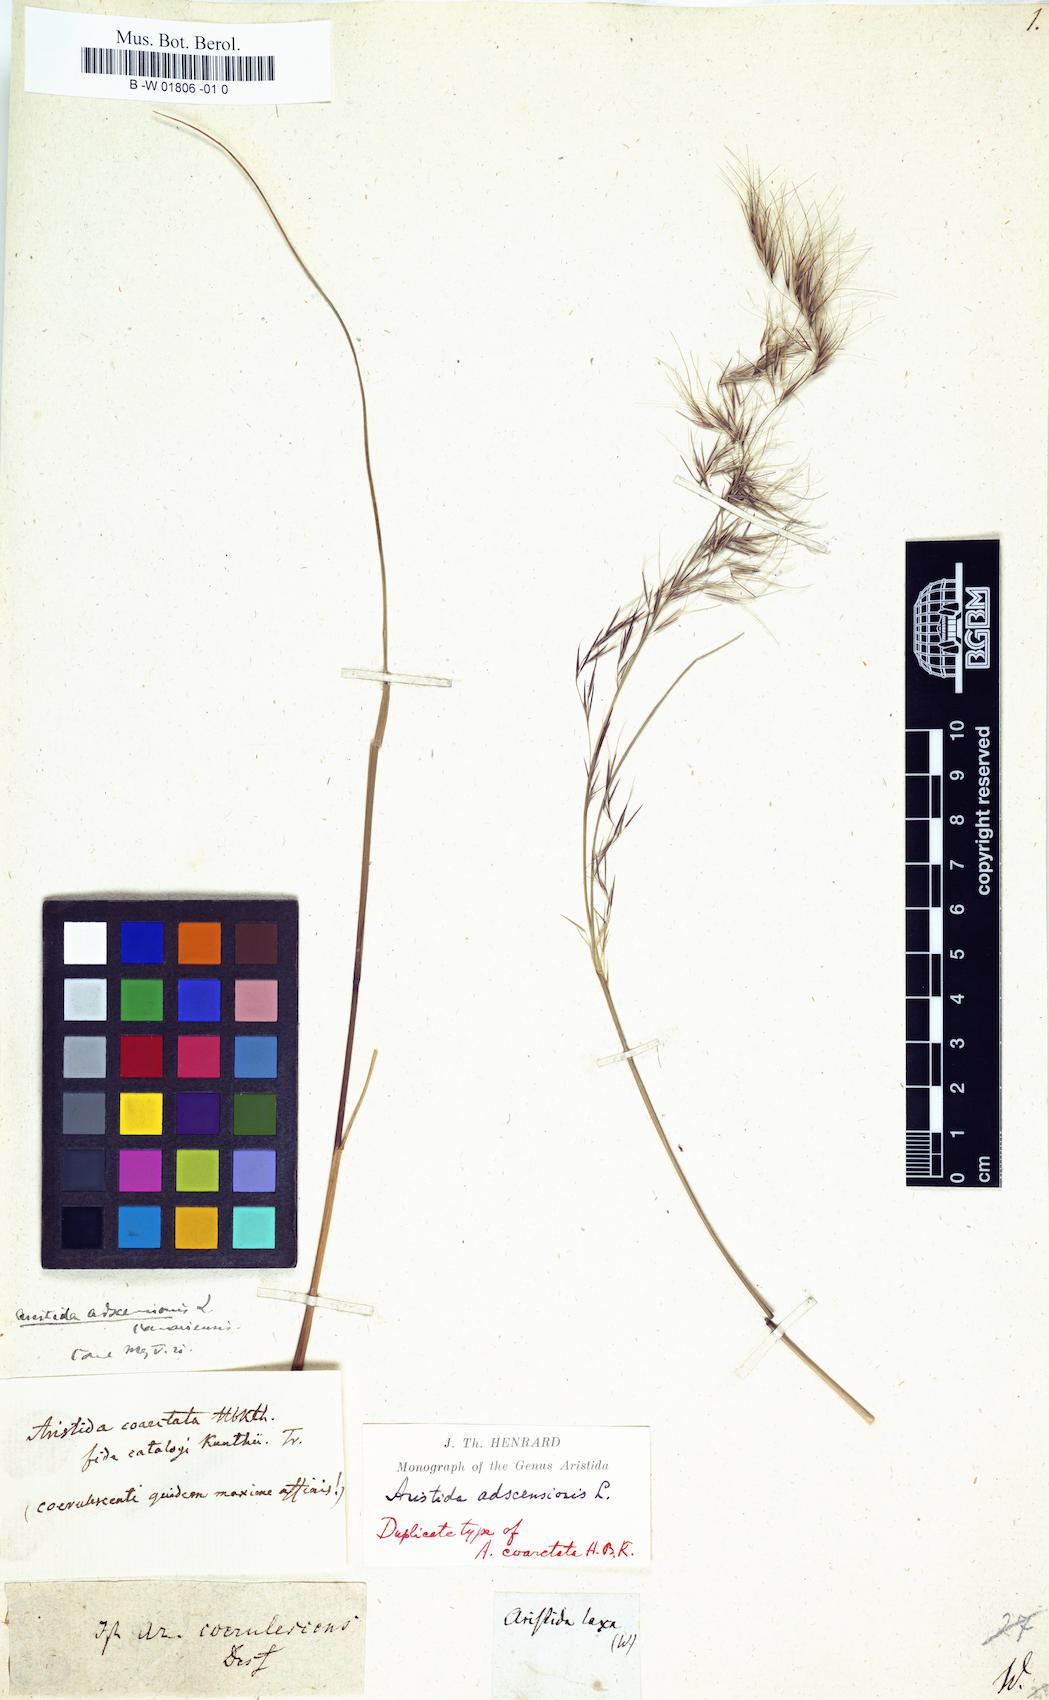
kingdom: Plantae
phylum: Tracheophyta
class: Liliopsida
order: Poales
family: Poaceae
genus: Aristida
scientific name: Aristida laxa
